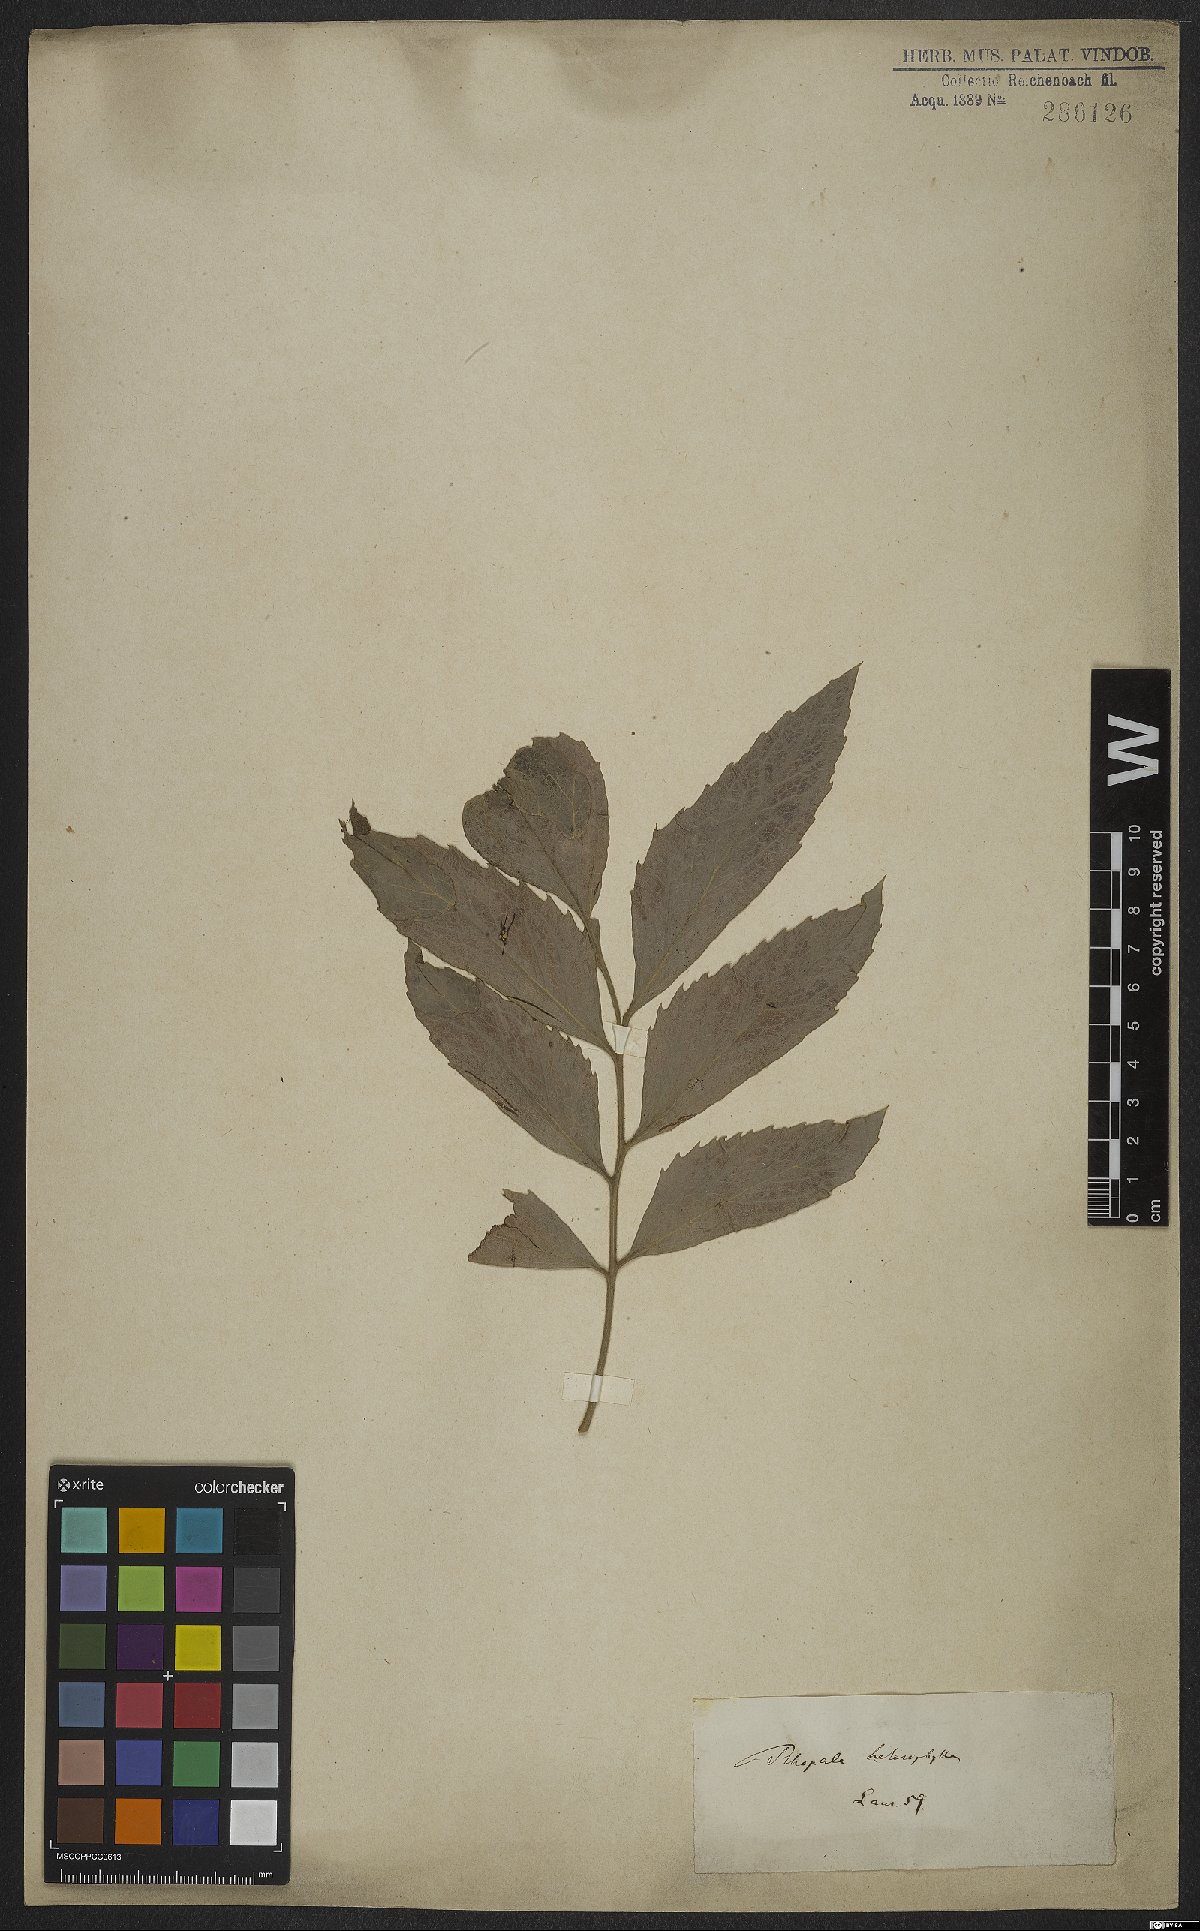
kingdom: Plantae
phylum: Tracheophyta
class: Magnoliopsida
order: Proteales
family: Proteaceae
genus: Roupala
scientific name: Roupala montana
